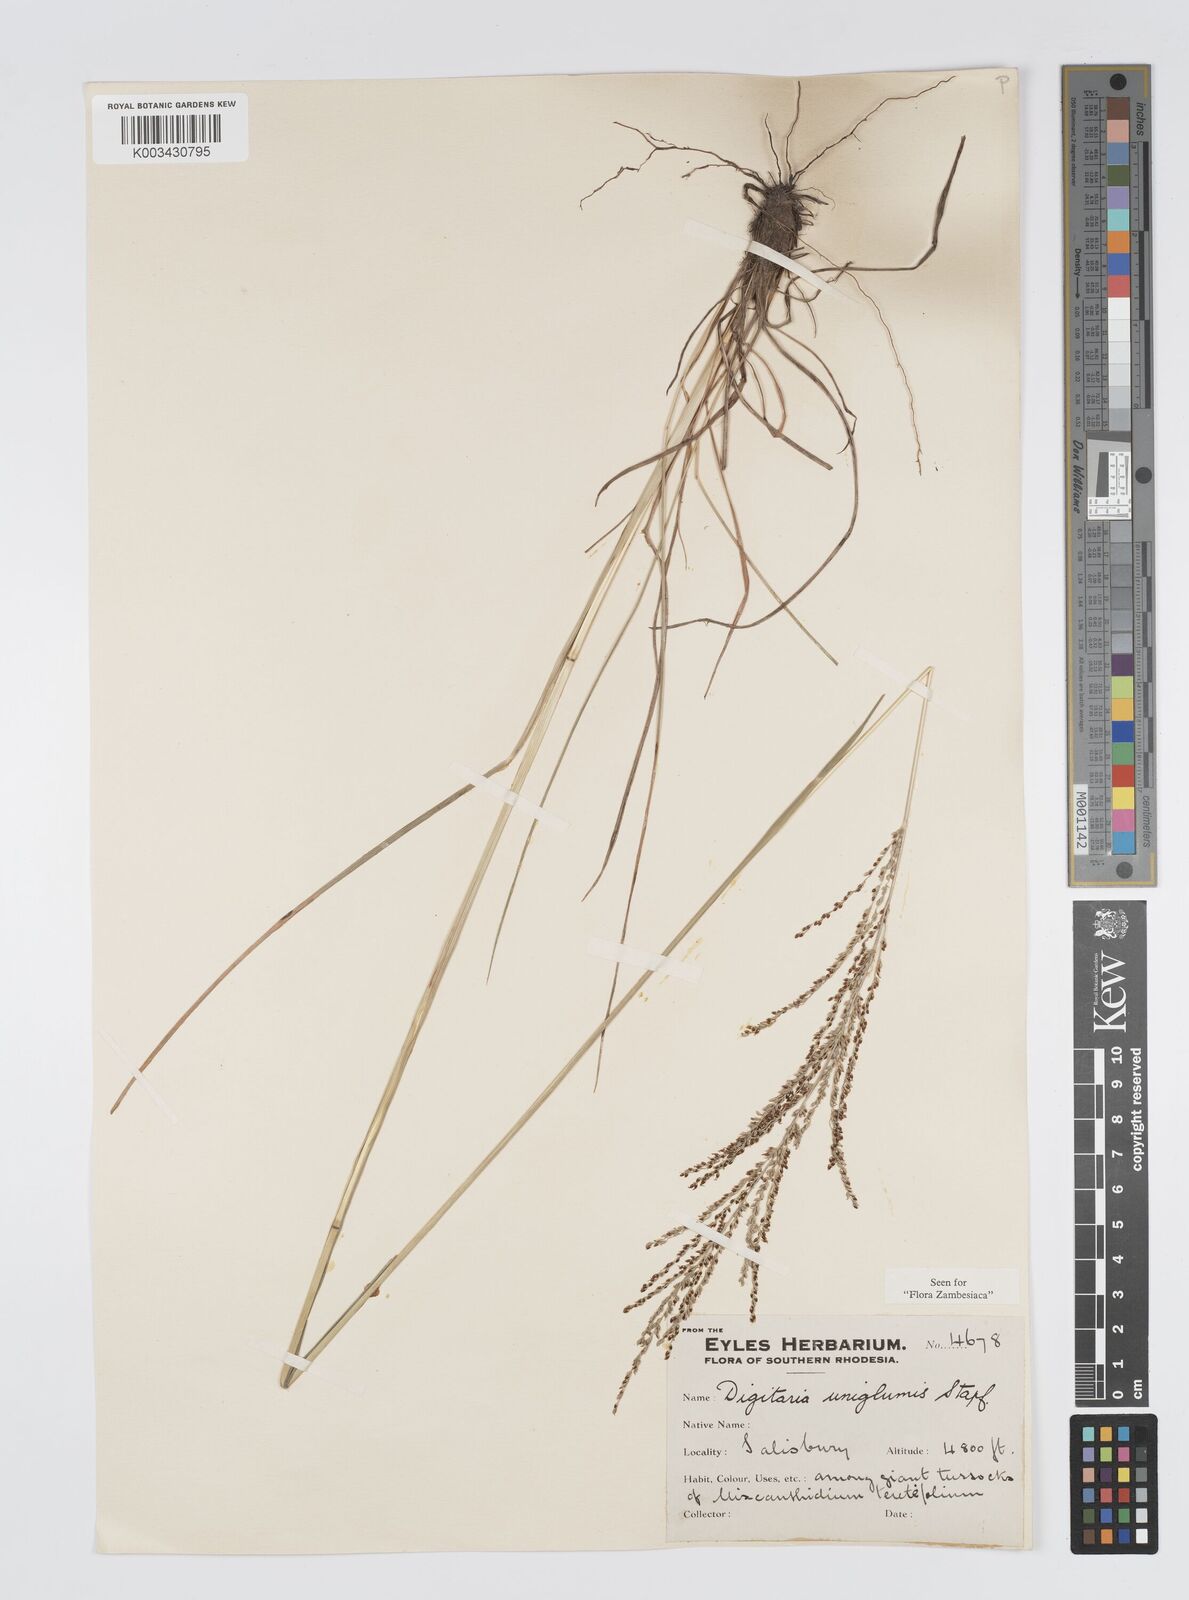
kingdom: Plantae
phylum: Tracheophyta
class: Liliopsida
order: Poales
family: Poaceae
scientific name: Poaceae
